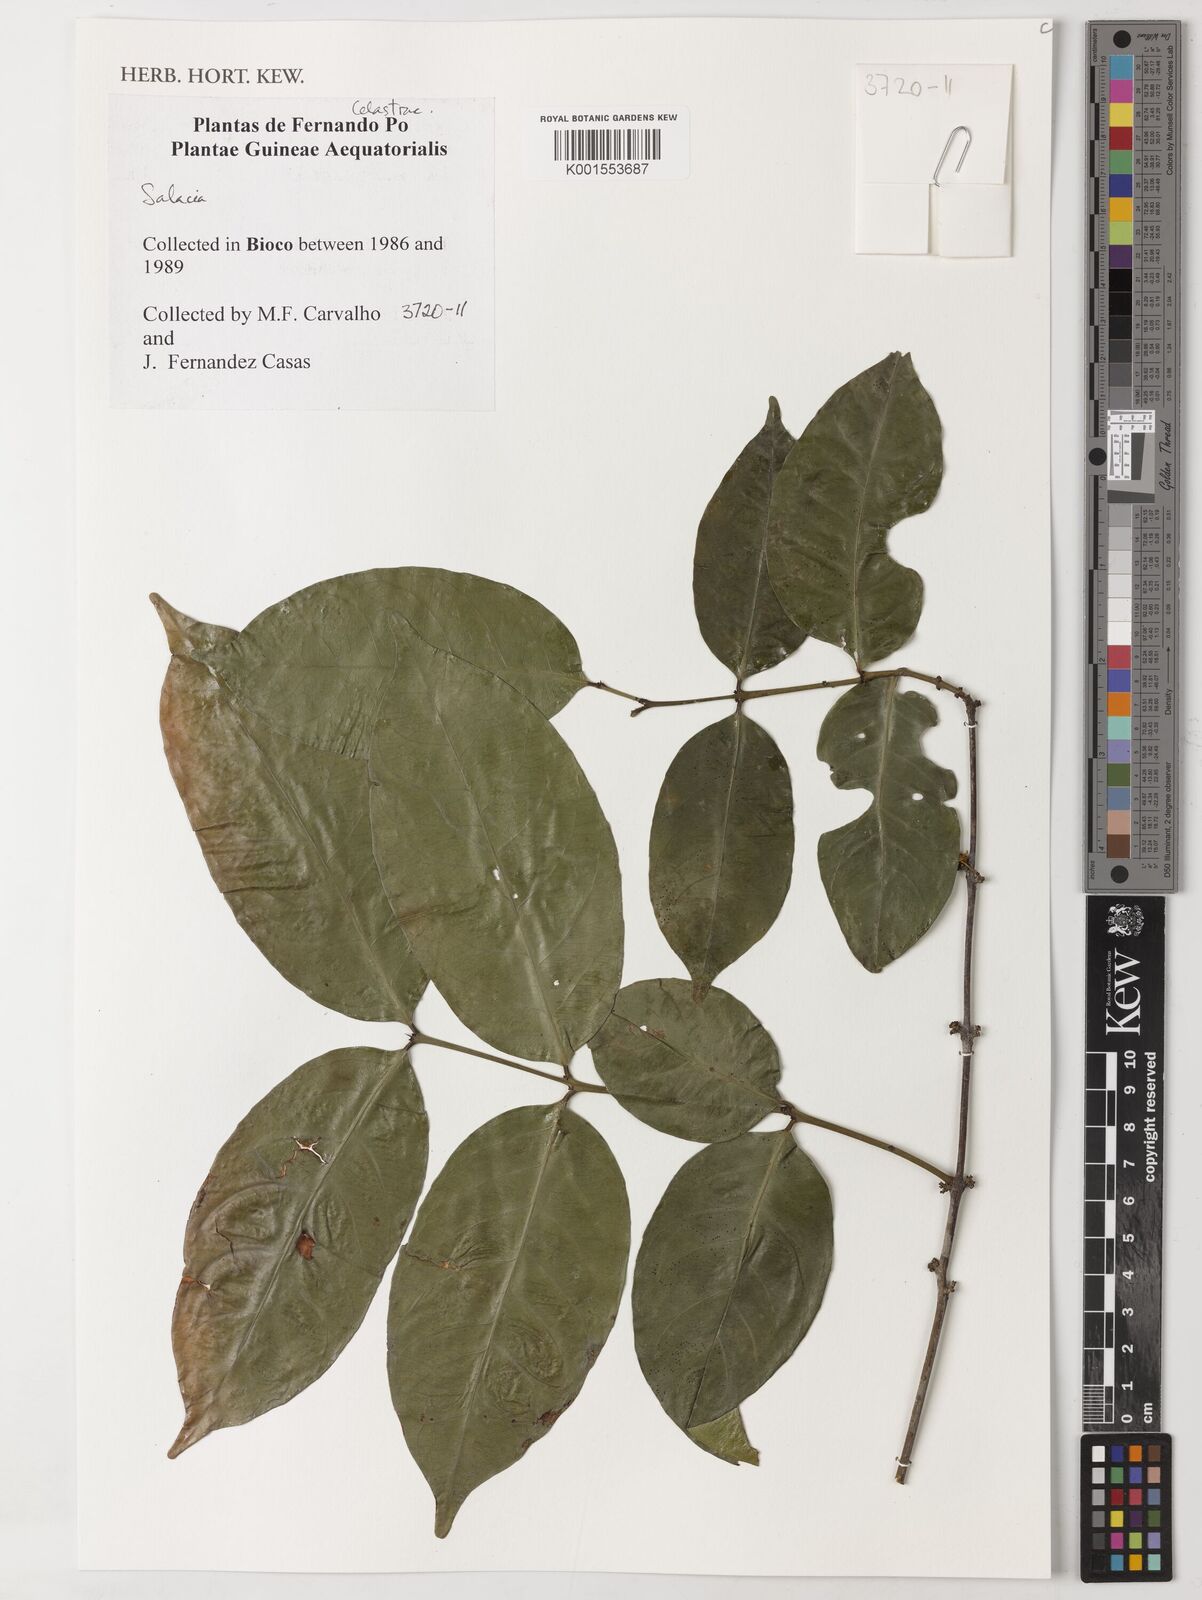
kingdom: Plantae
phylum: Tracheophyta
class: Magnoliopsida
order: Celastrales
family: Celastraceae
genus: Salacia
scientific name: Salacia
